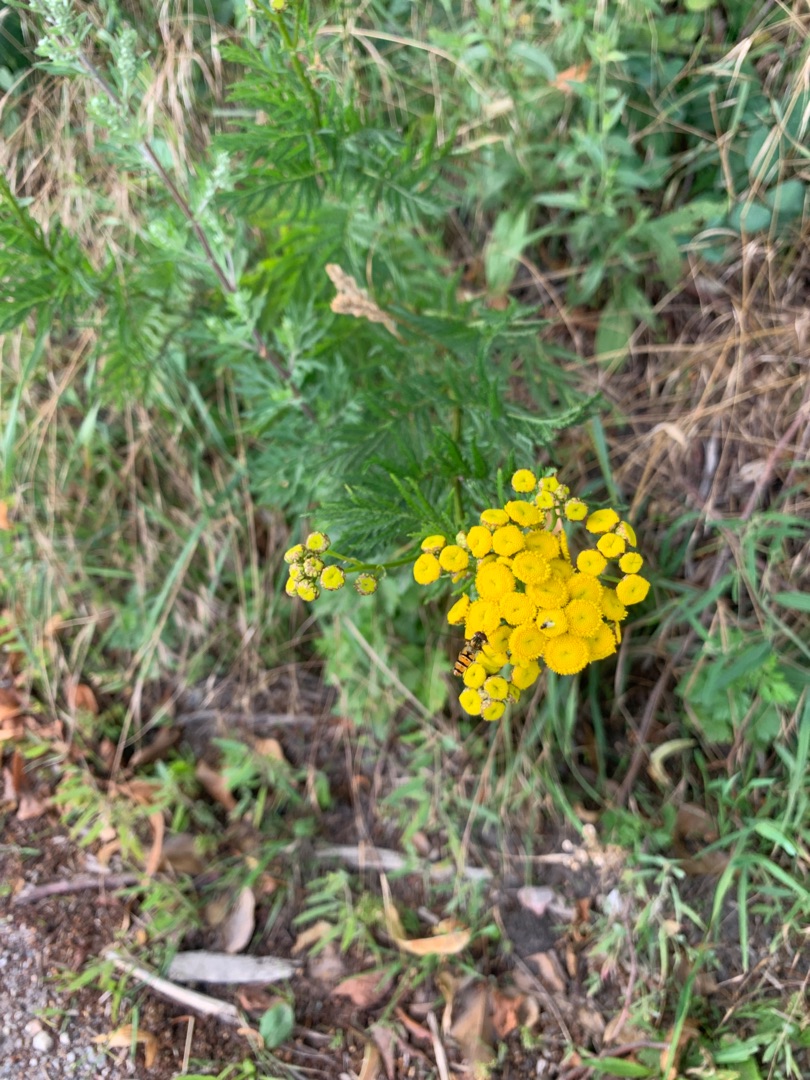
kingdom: Plantae
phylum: Tracheophyta
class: Magnoliopsida
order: Asterales
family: Asteraceae
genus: Tanacetum
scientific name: Tanacetum vulgare
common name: Rejnfan
